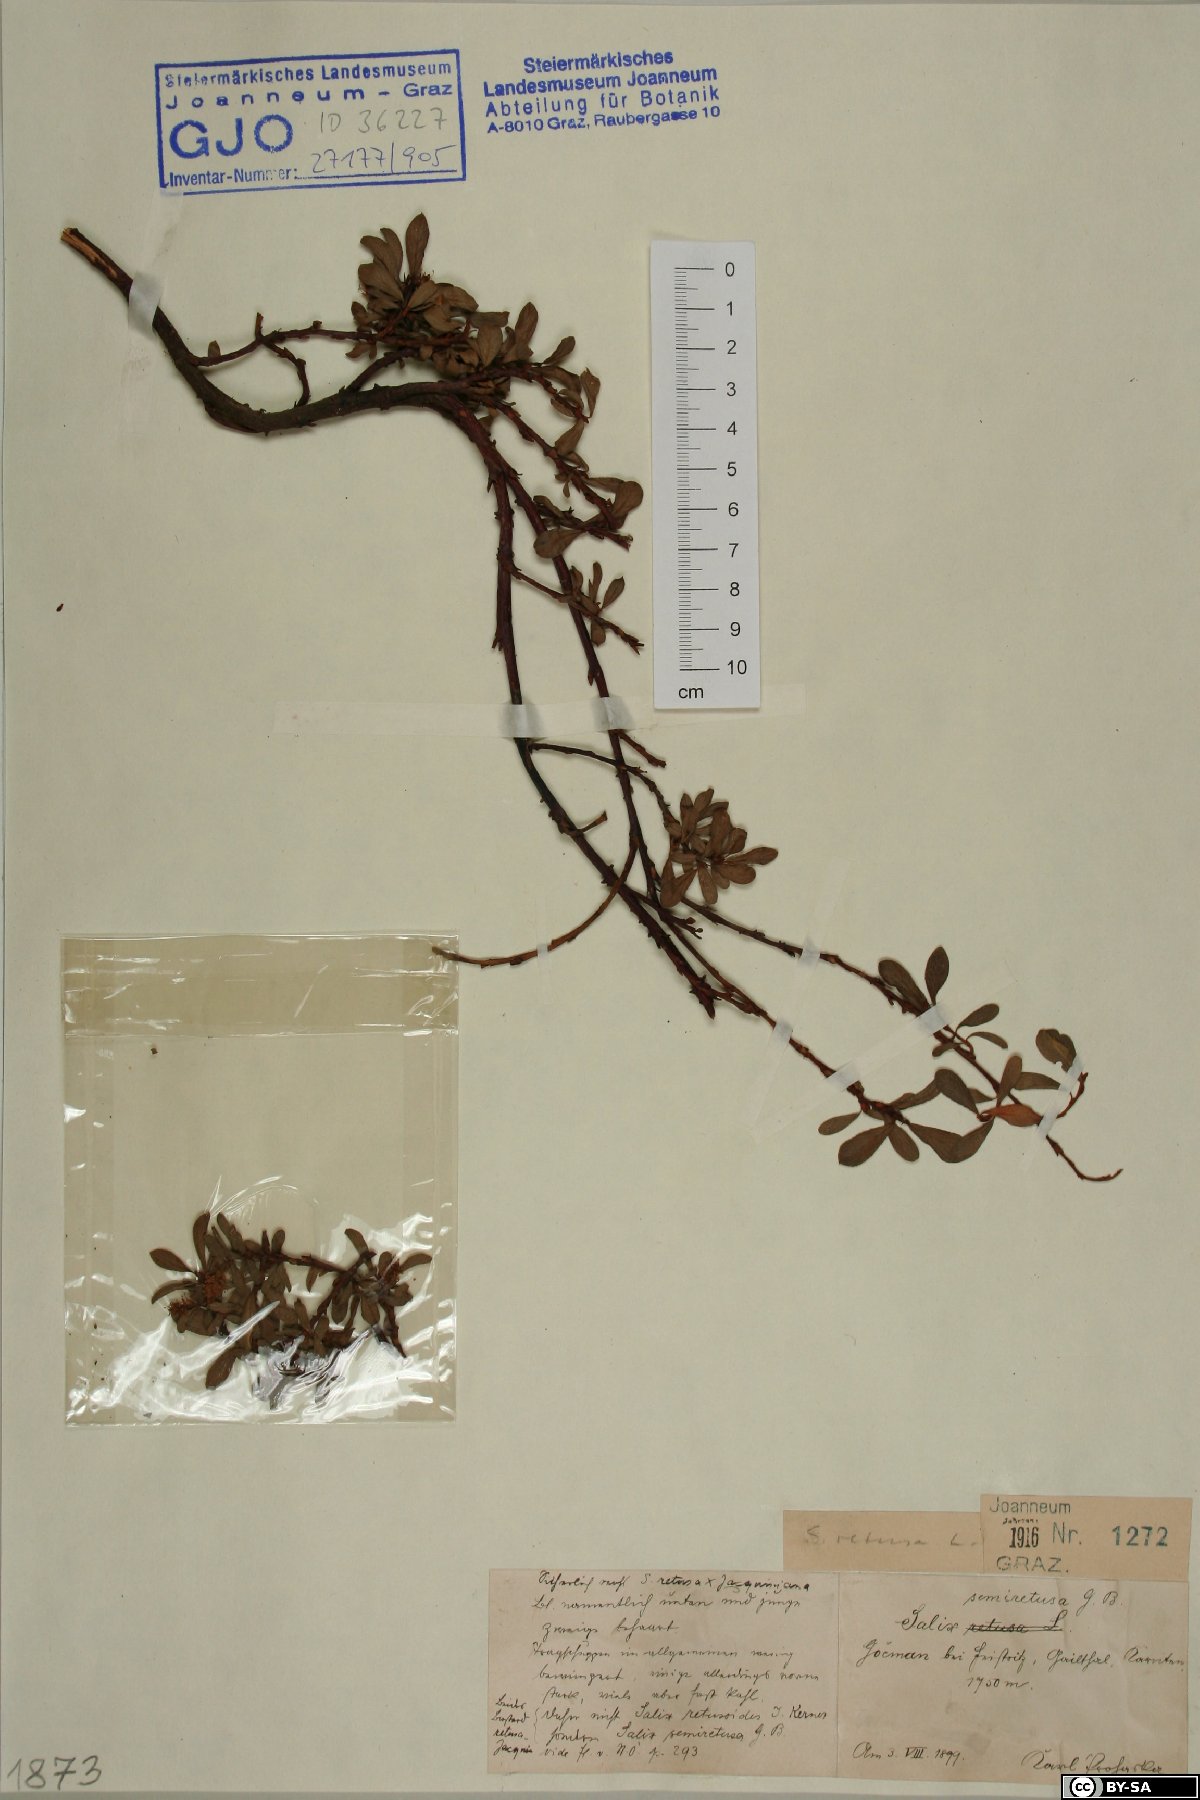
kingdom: Plantae
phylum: Tracheophyta
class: Magnoliopsida
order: Malpighiales
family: Salicaceae
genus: Salix
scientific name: Salix retusa
